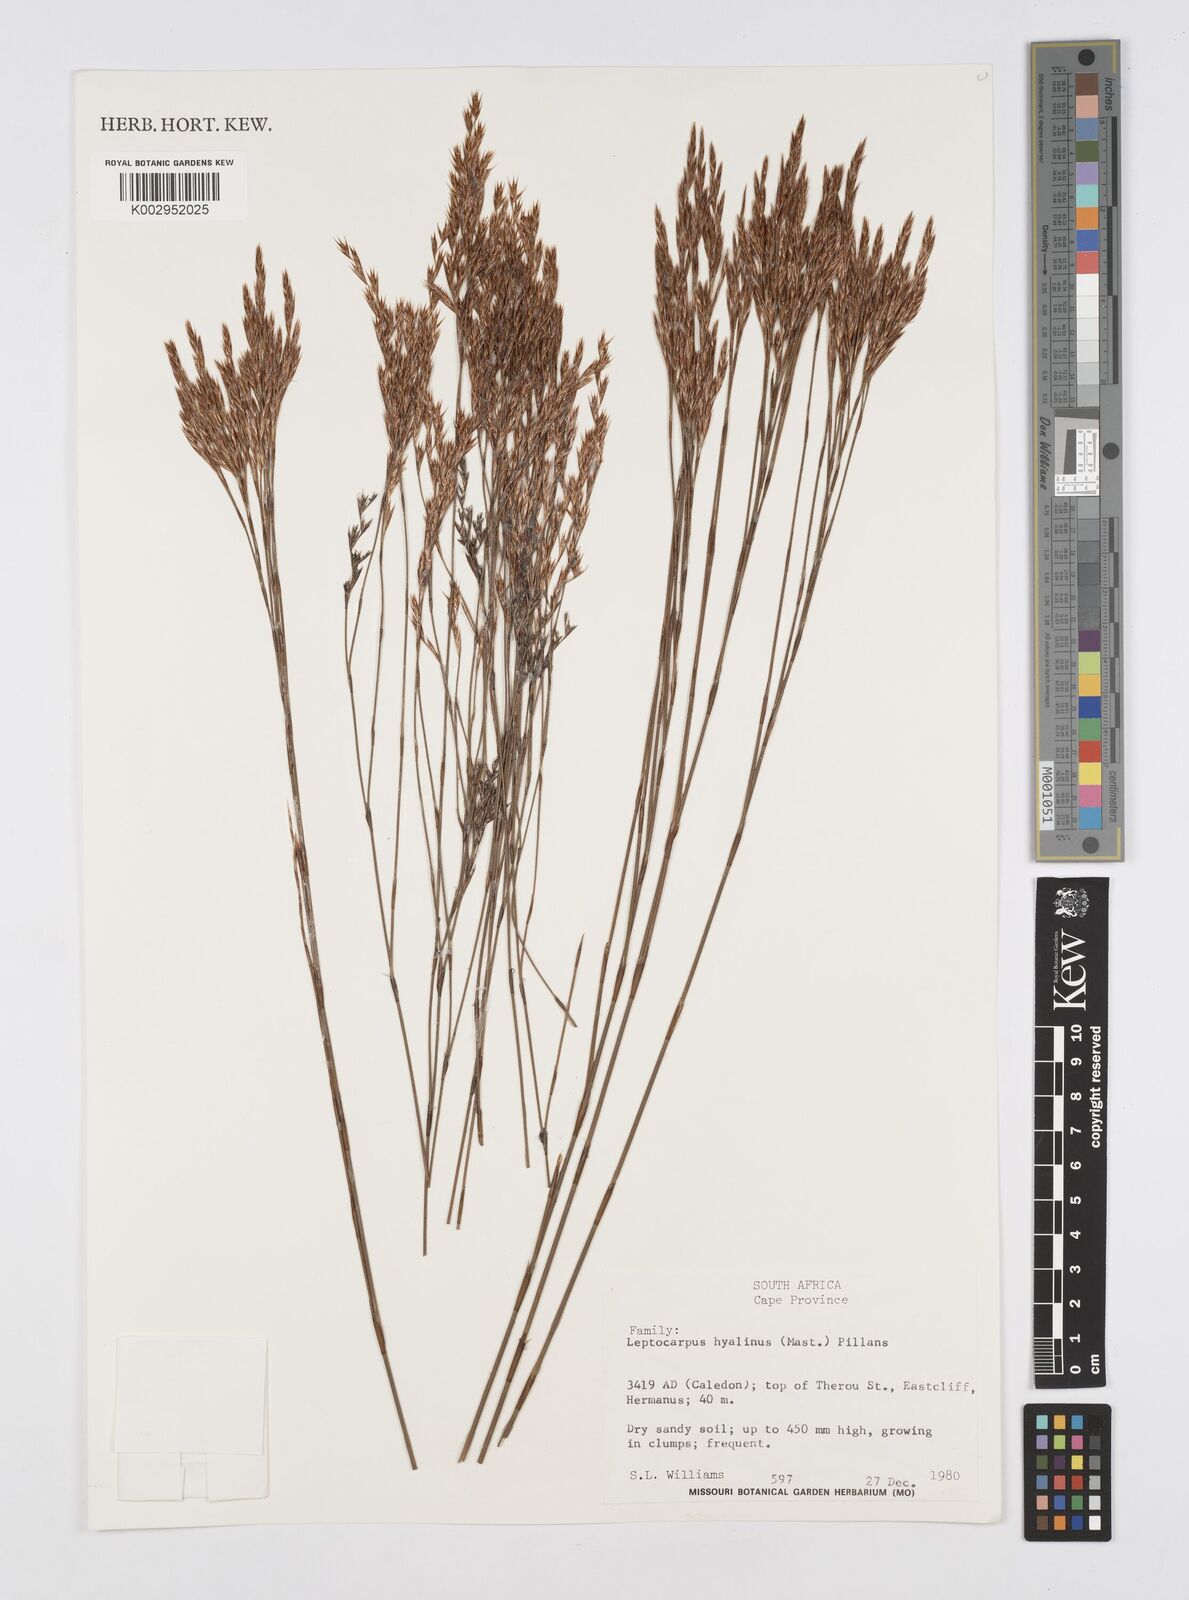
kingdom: Plantae
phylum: Tracheophyta
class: Liliopsida
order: Poales
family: Restionaceae
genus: Restio
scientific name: Restio hyalinus
